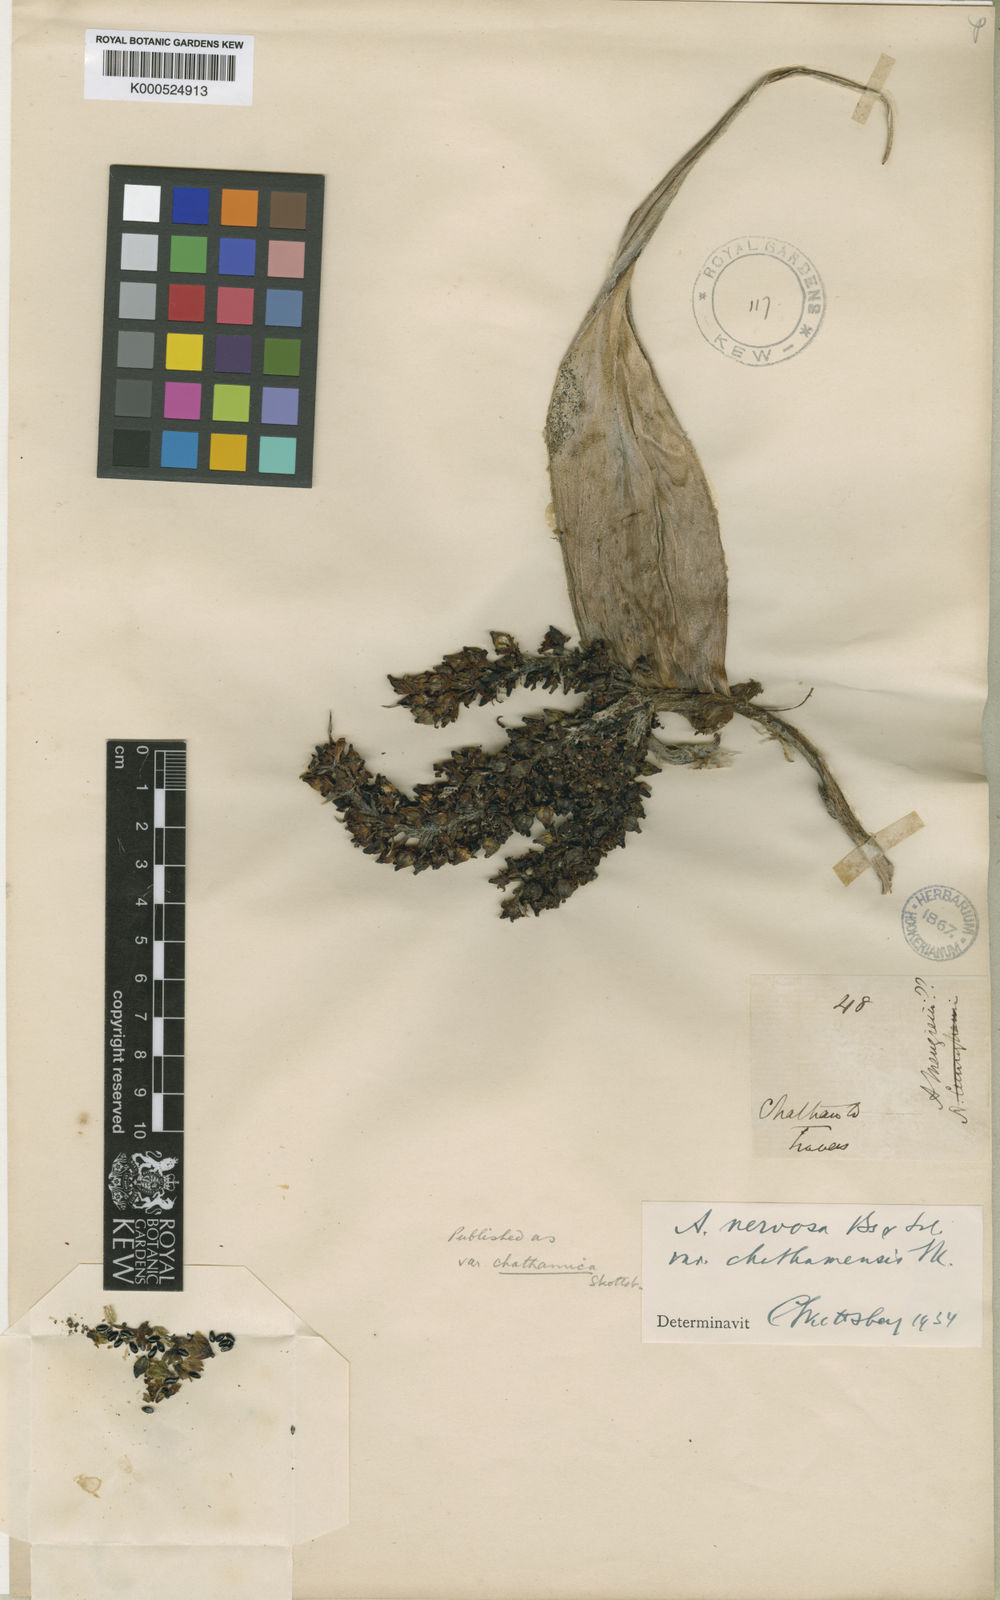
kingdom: Plantae
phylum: Tracheophyta
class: Liliopsida
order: Asparagales
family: Asteliaceae
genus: Astelia
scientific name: Astelia chathamica
